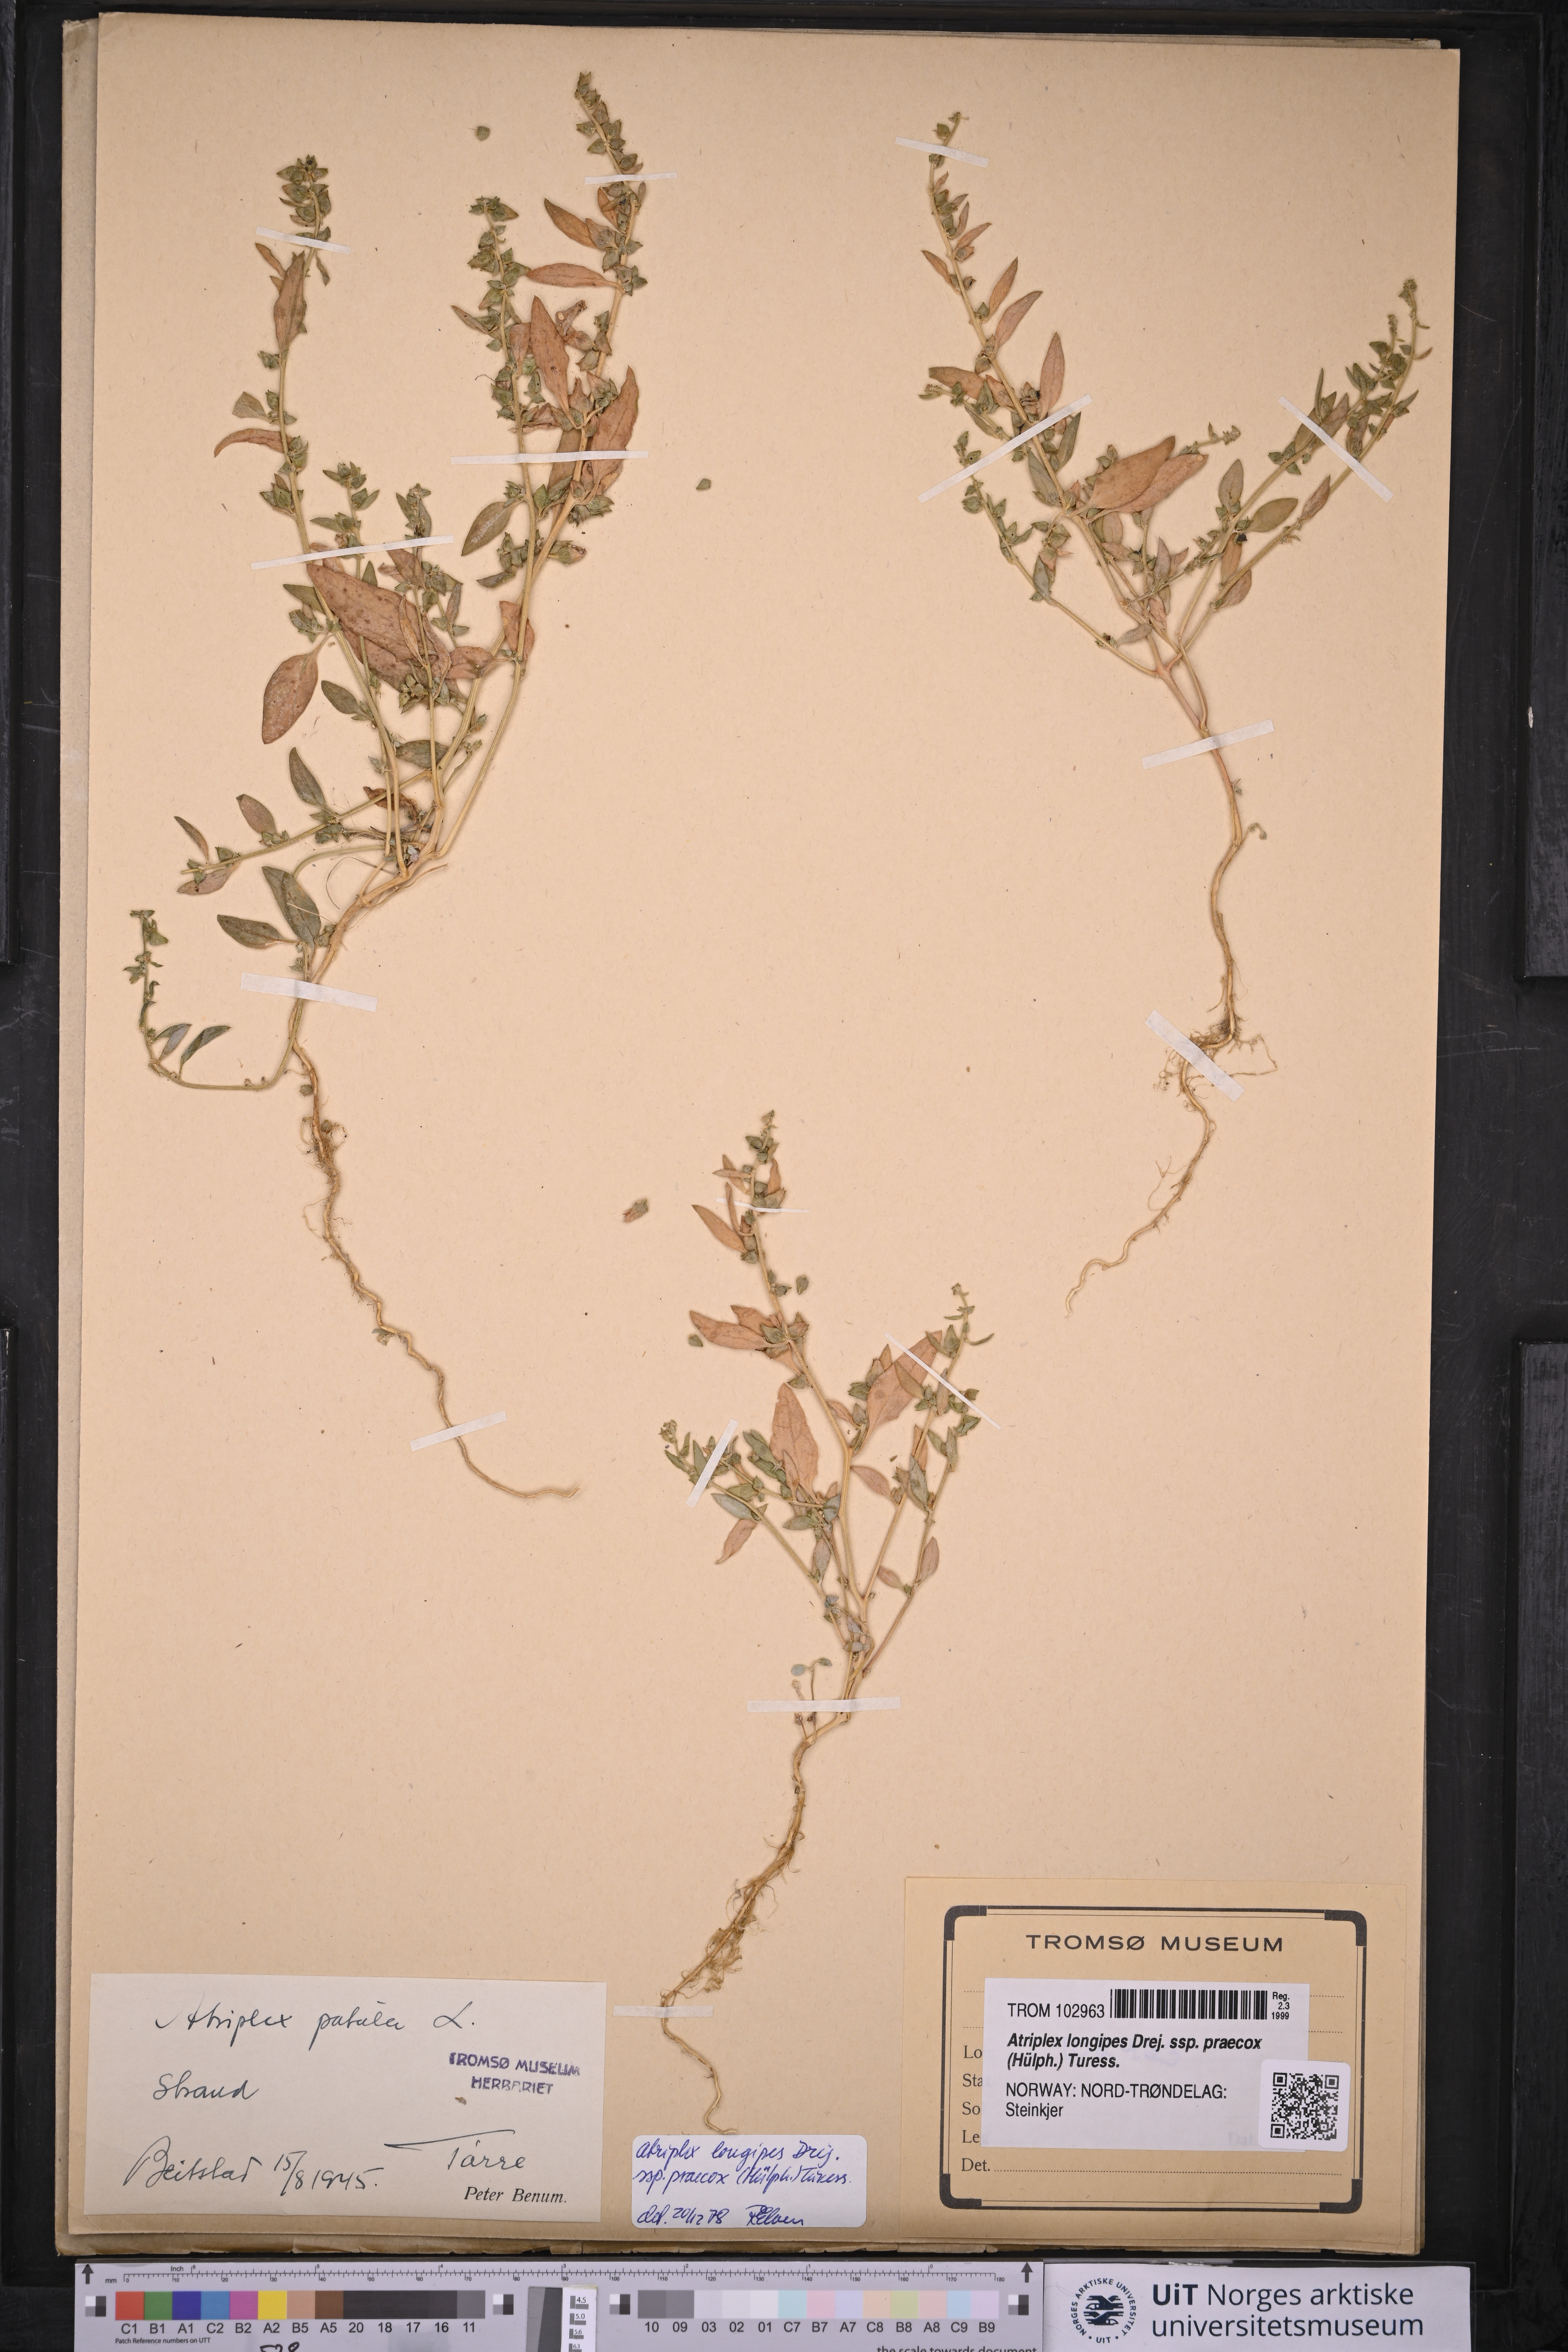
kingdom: Plantae
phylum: Tracheophyta
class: Magnoliopsida
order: Caryophyllales
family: Amaranthaceae
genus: Atriplex
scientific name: Atriplex praecox
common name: Early orache
